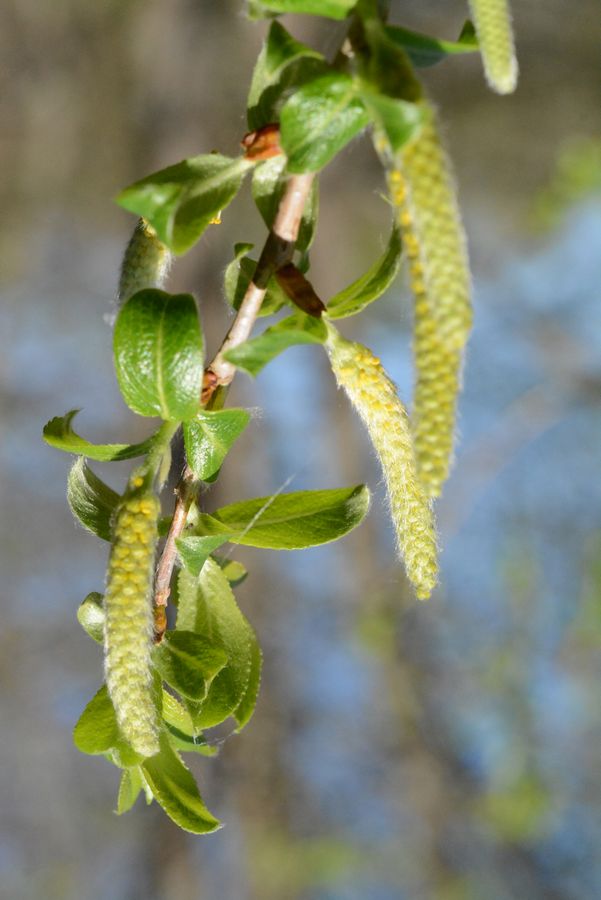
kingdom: Plantae
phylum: Tracheophyta
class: Magnoliopsida
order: Malpighiales
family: Salicaceae
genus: Salix
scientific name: Salix
